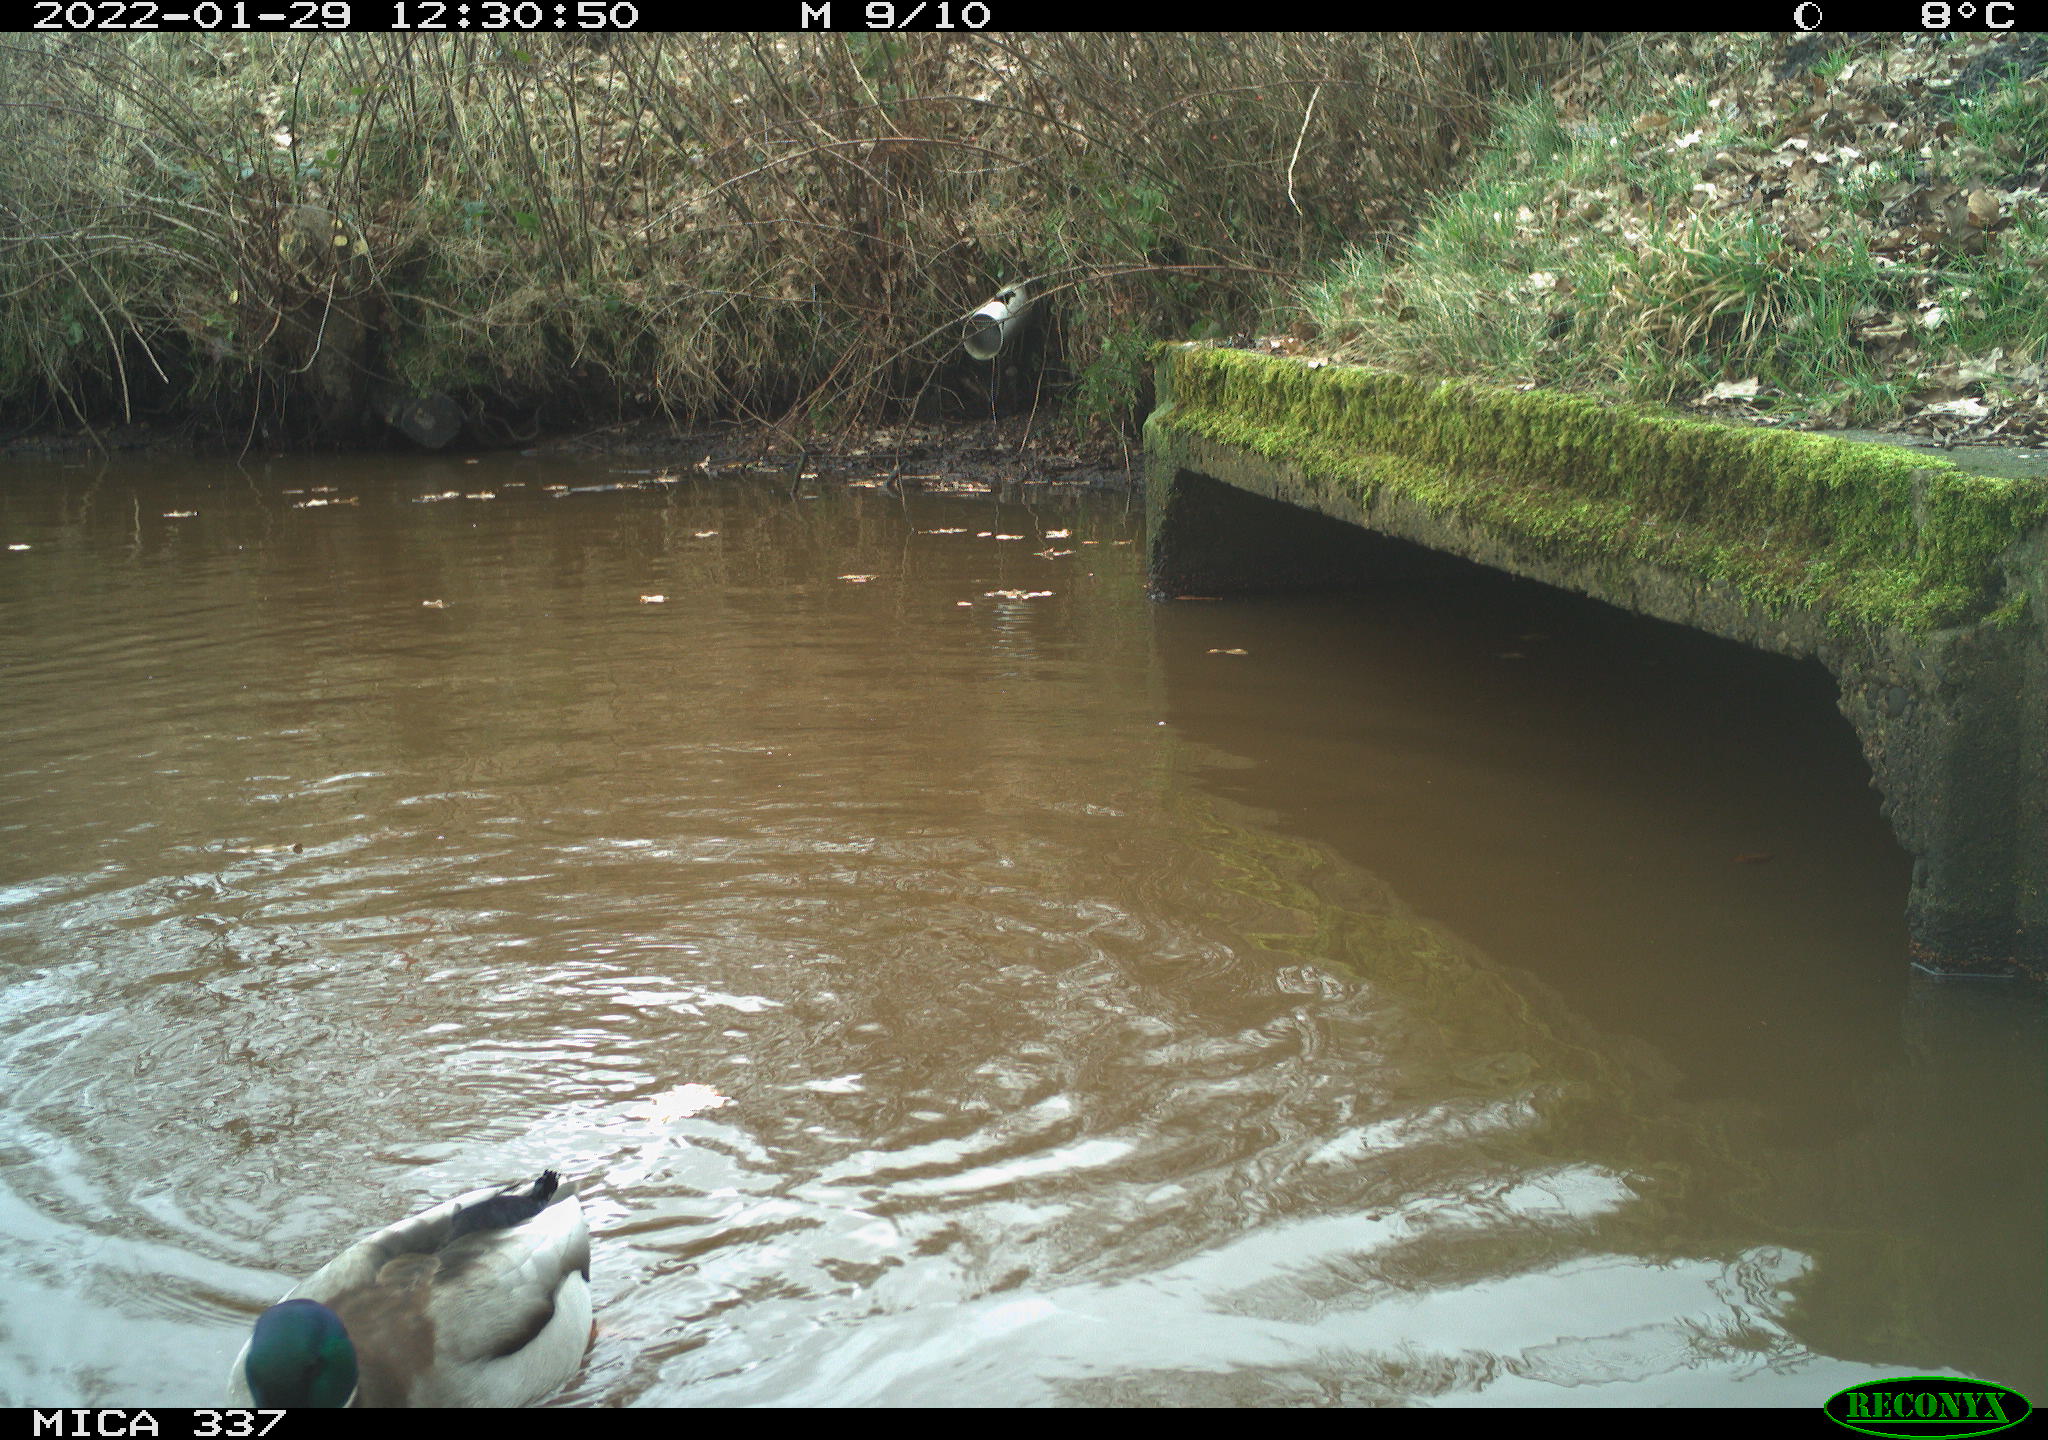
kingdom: Animalia
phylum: Chordata
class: Aves
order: Anseriformes
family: Anatidae
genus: Anas
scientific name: Anas platyrhynchos
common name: Mallard
